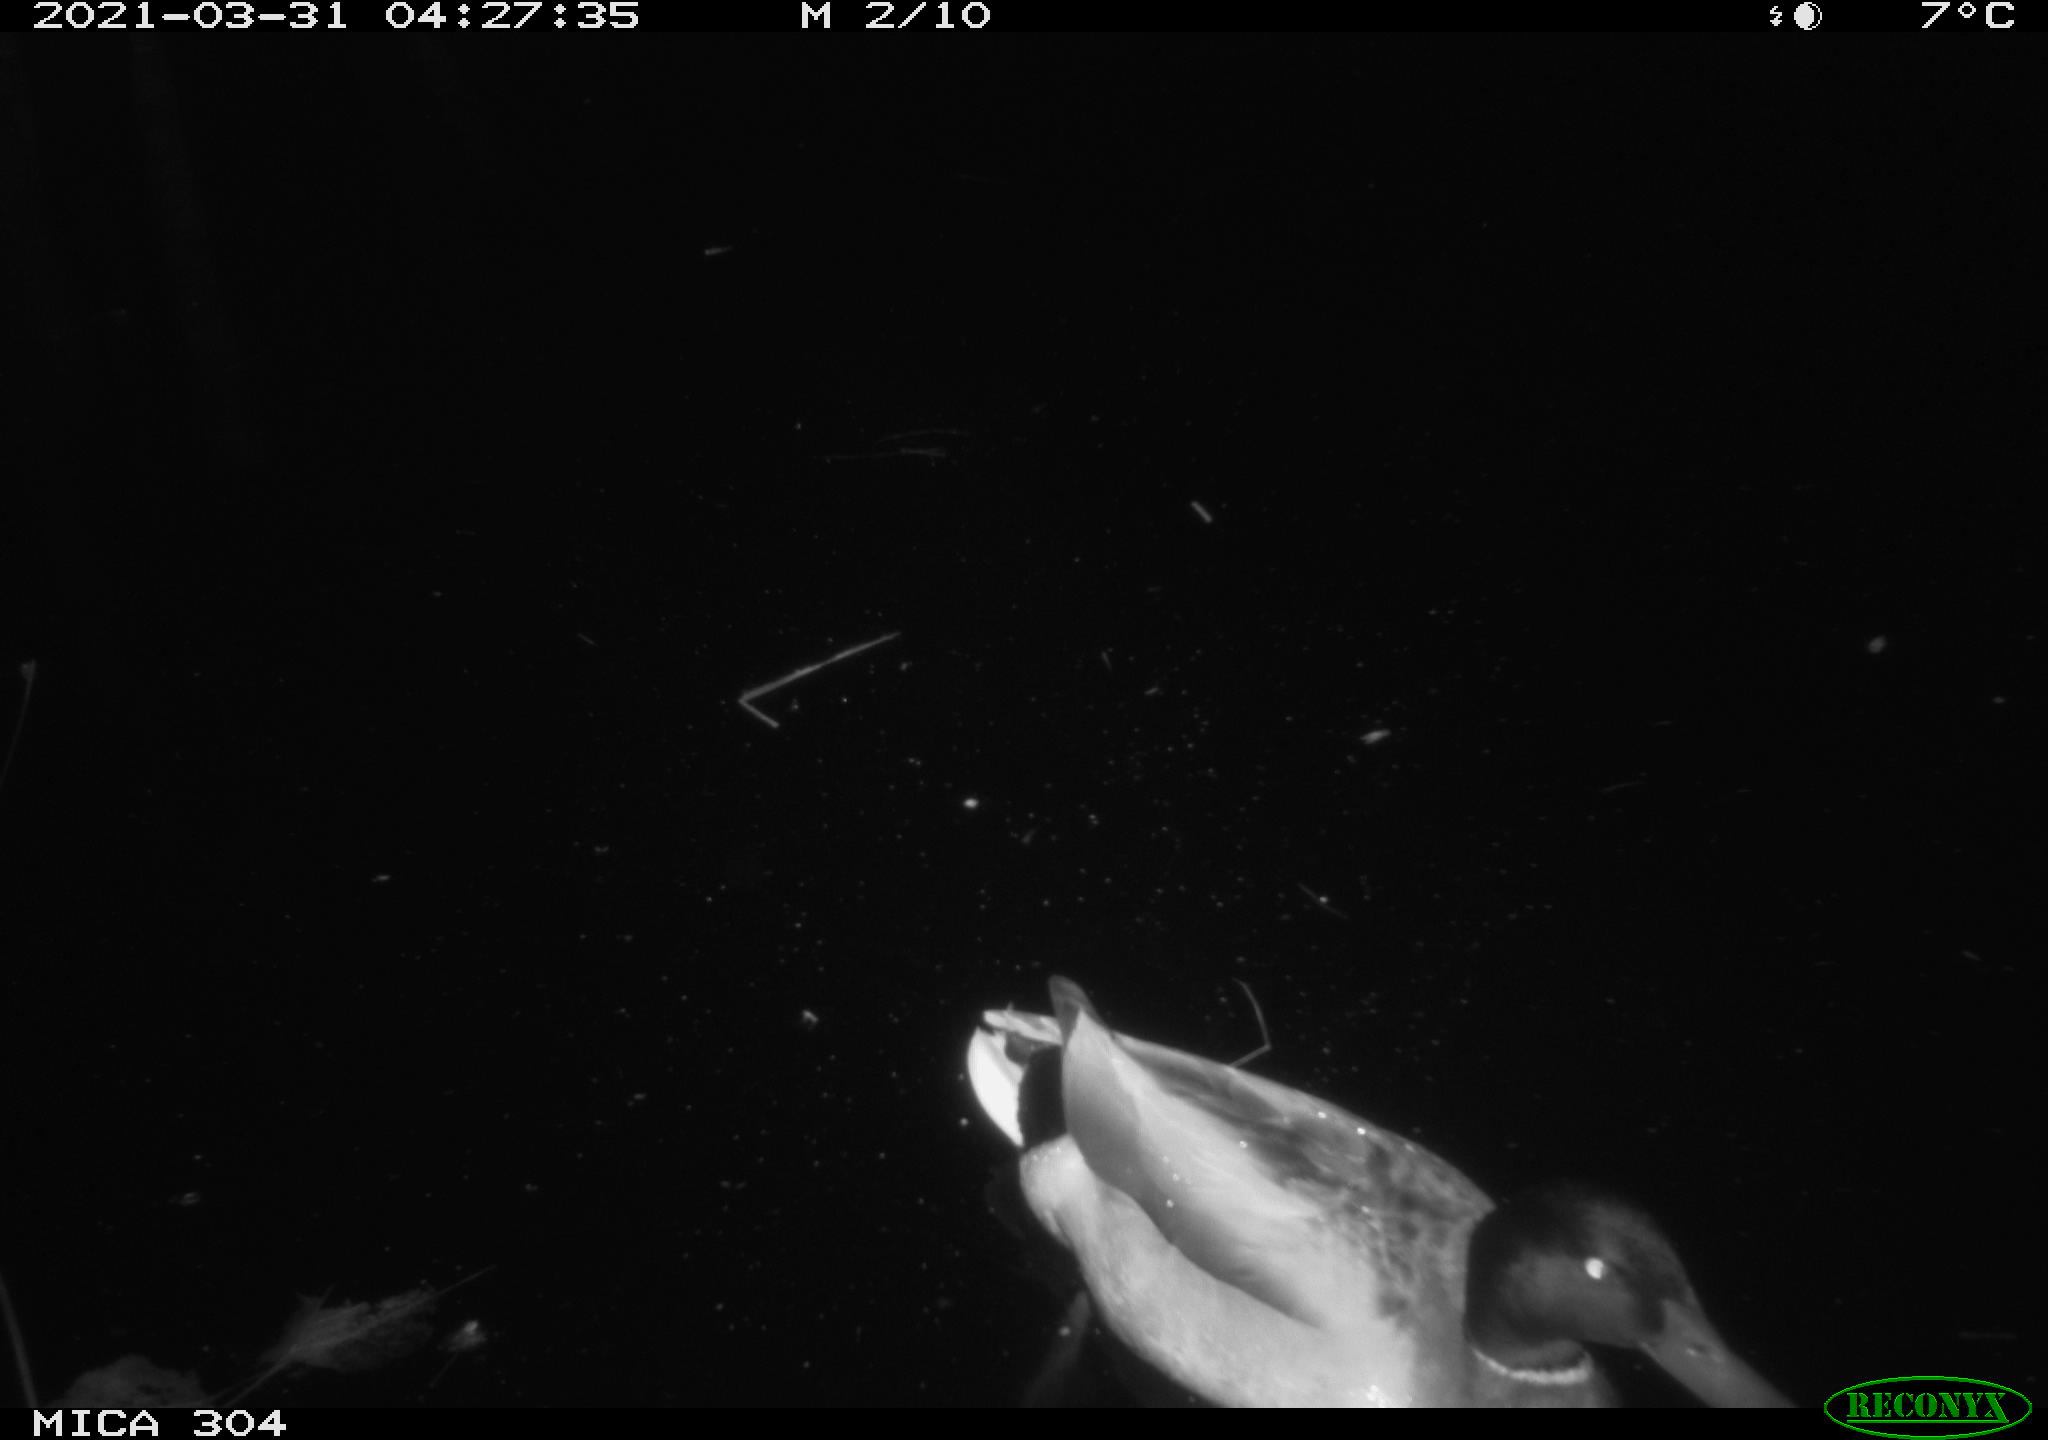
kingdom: Animalia
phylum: Chordata
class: Aves
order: Anseriformes
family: Anatidae
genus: Anas
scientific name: Anas platyrhynchos
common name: Mallard
